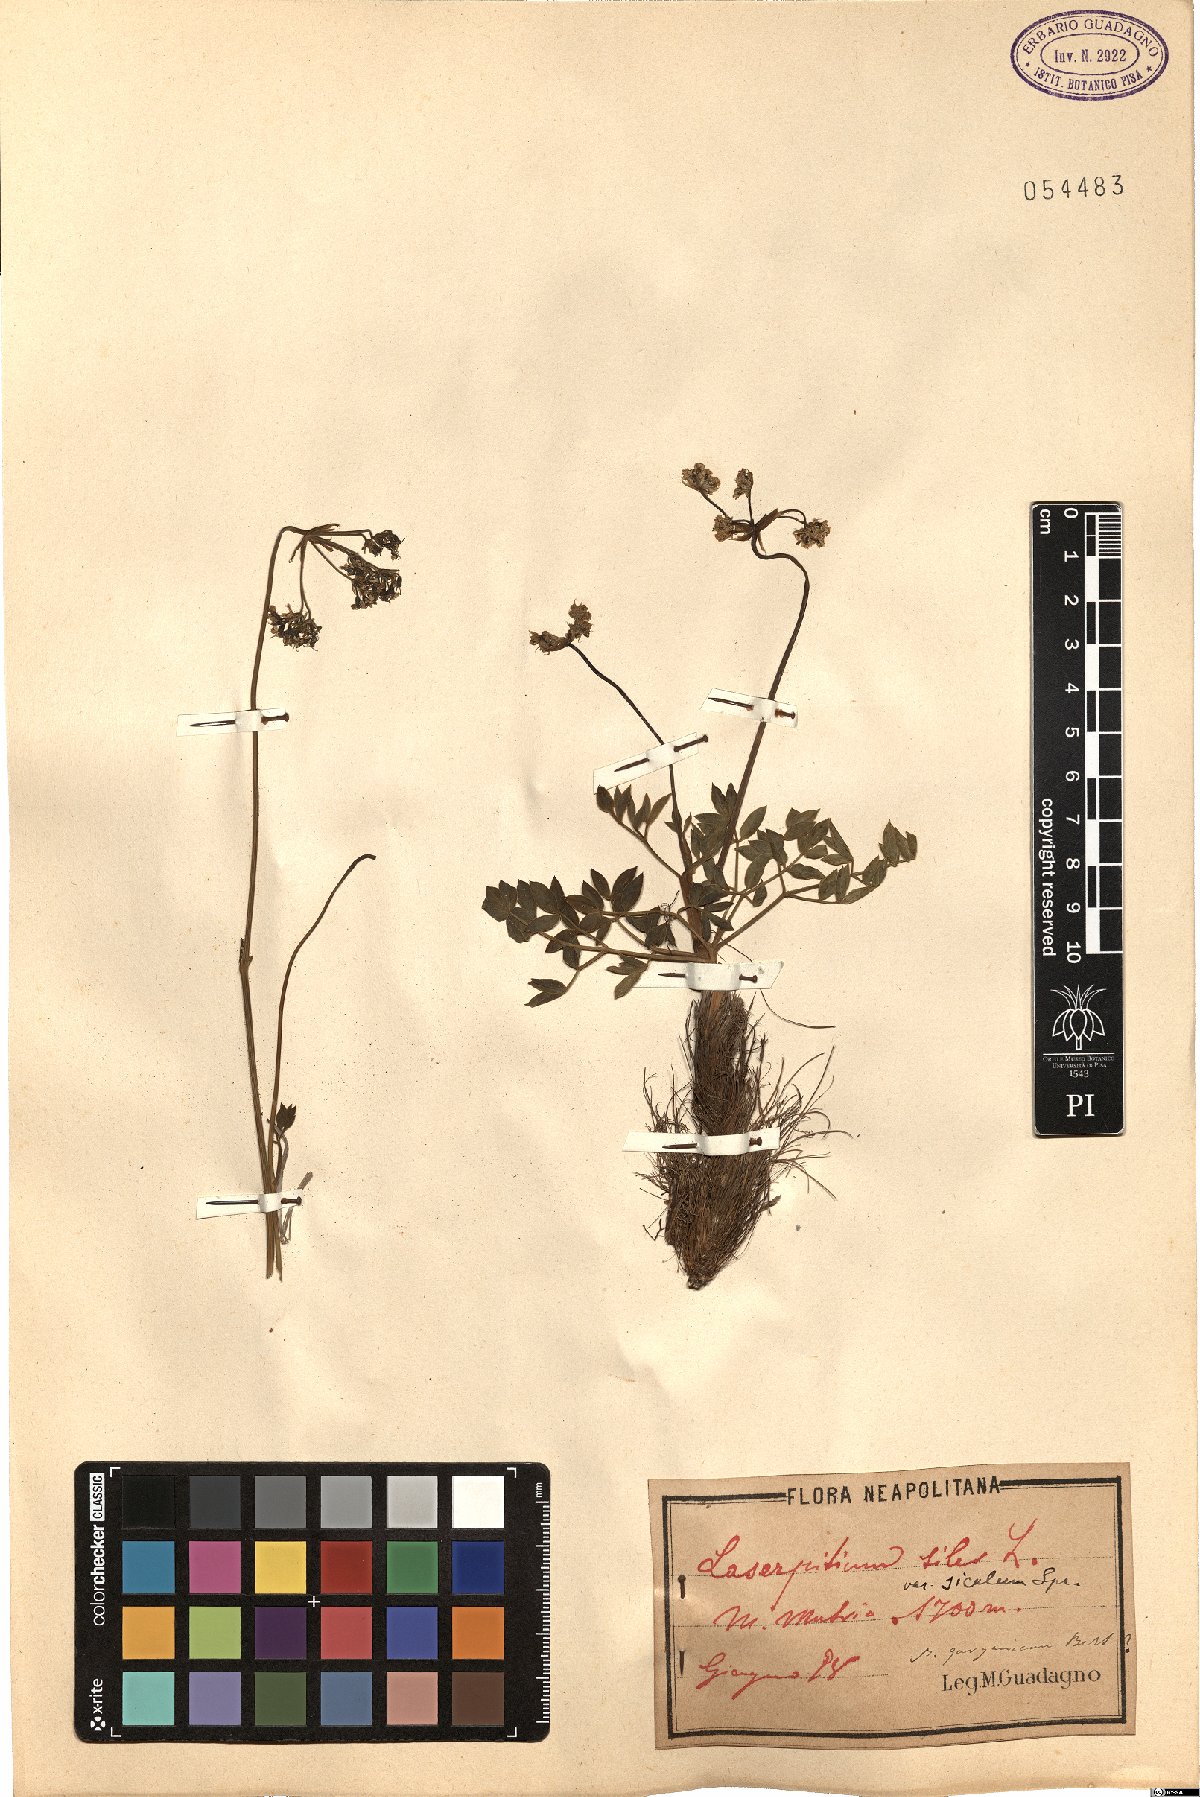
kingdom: Plantae
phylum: Tracheophyta
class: Magnoliopsida
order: Apiales
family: Apiaceae
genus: Siler
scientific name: Siler montanum
